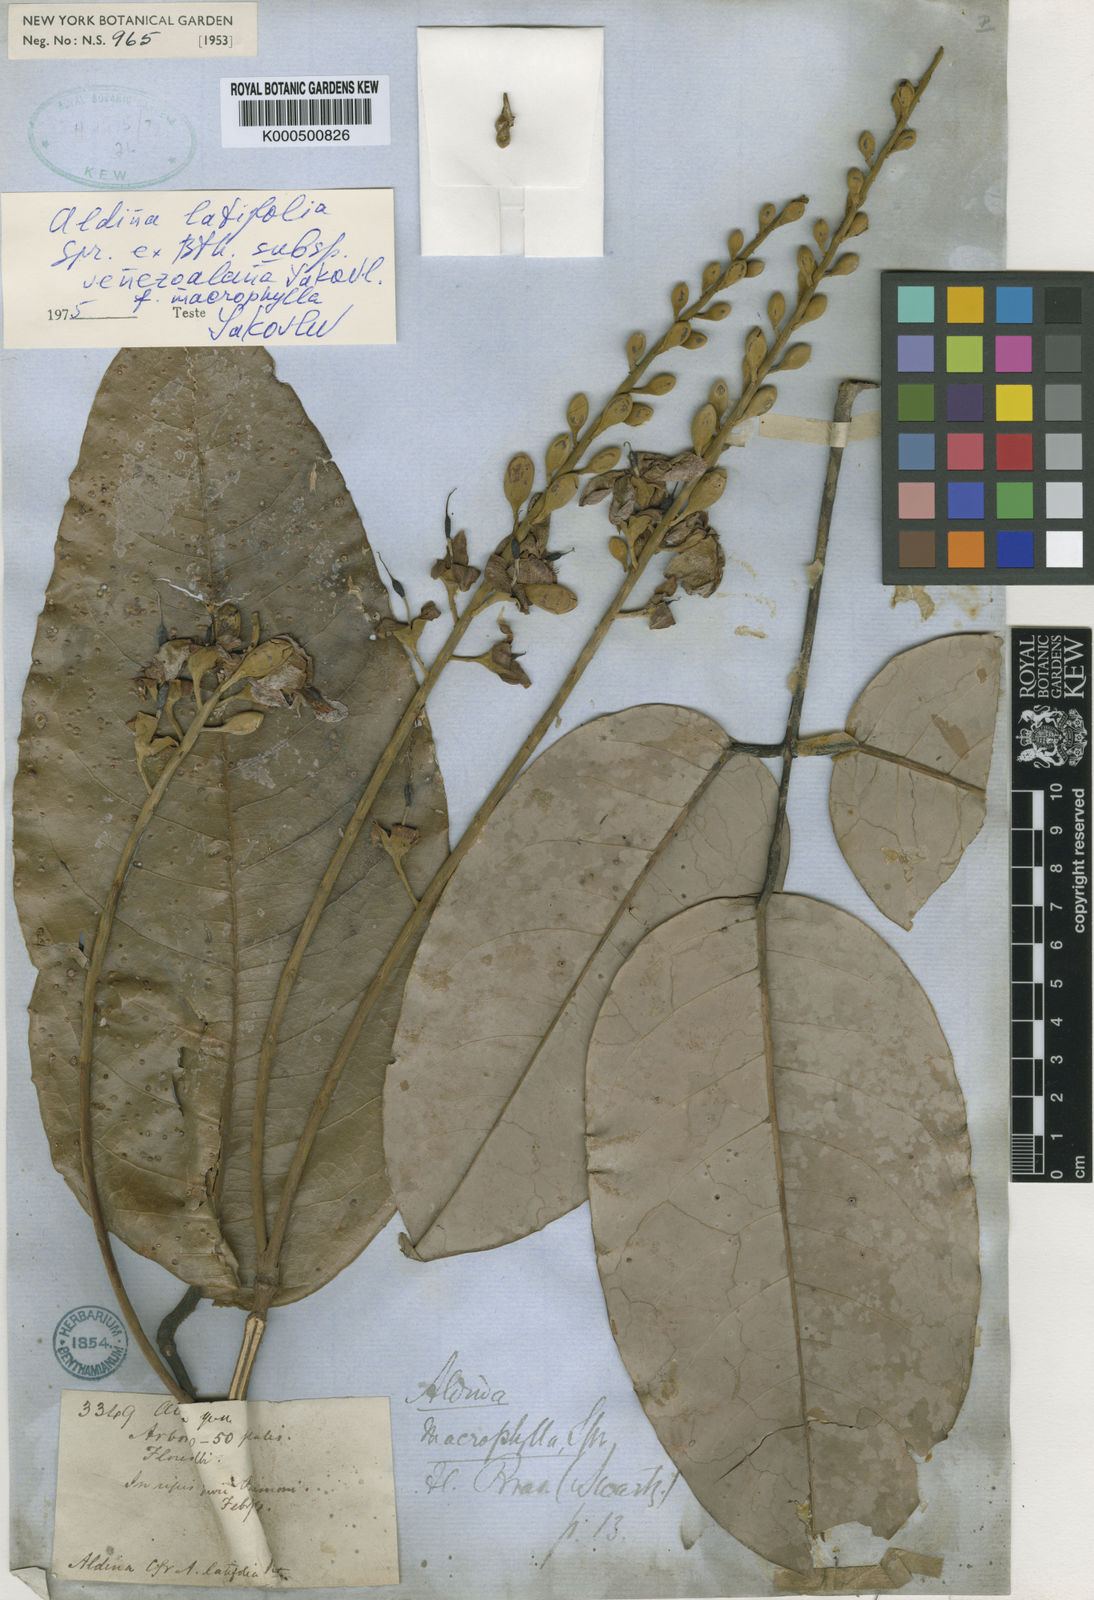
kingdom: Plantae
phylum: Tracheophyta
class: Magnoliopsida
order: Fabales
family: Fabaceae
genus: Aldina
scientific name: Aldina latifolia
